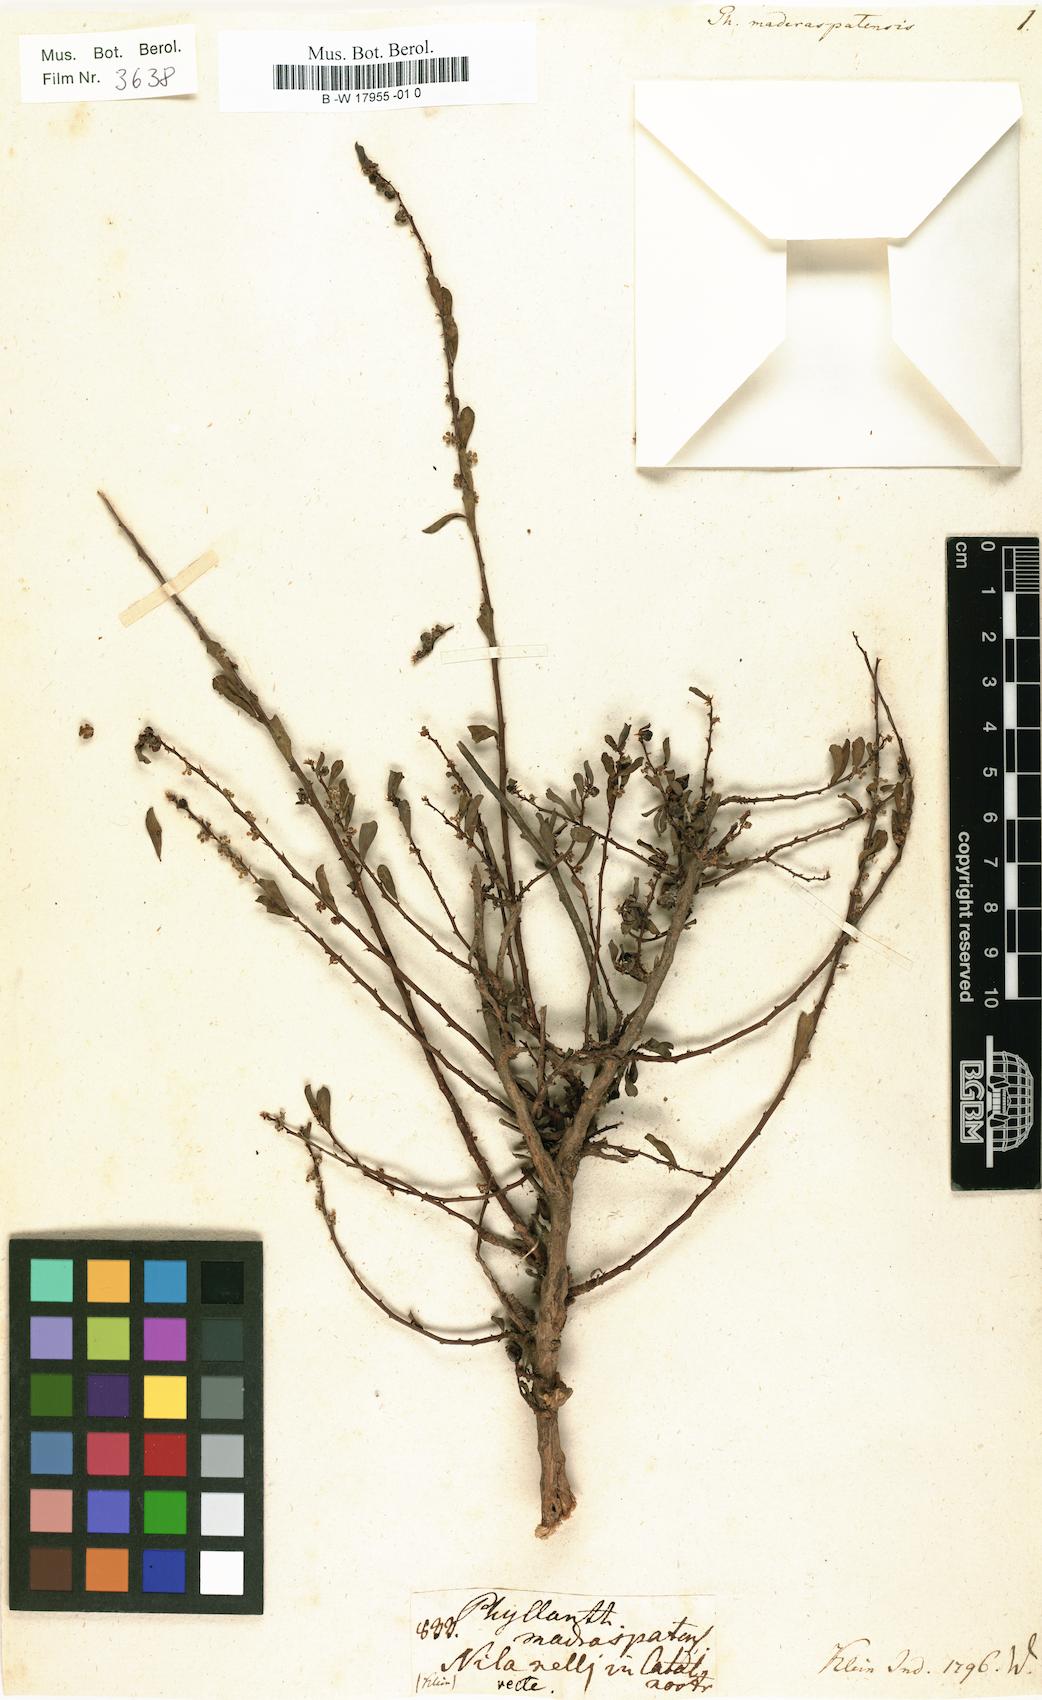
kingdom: Plantae
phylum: Tracheophyta
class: Magnoliopsida
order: Malpighiales
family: Phyllanthaceae
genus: Phyllanthus
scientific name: Phyllanthus maderaspatensis
